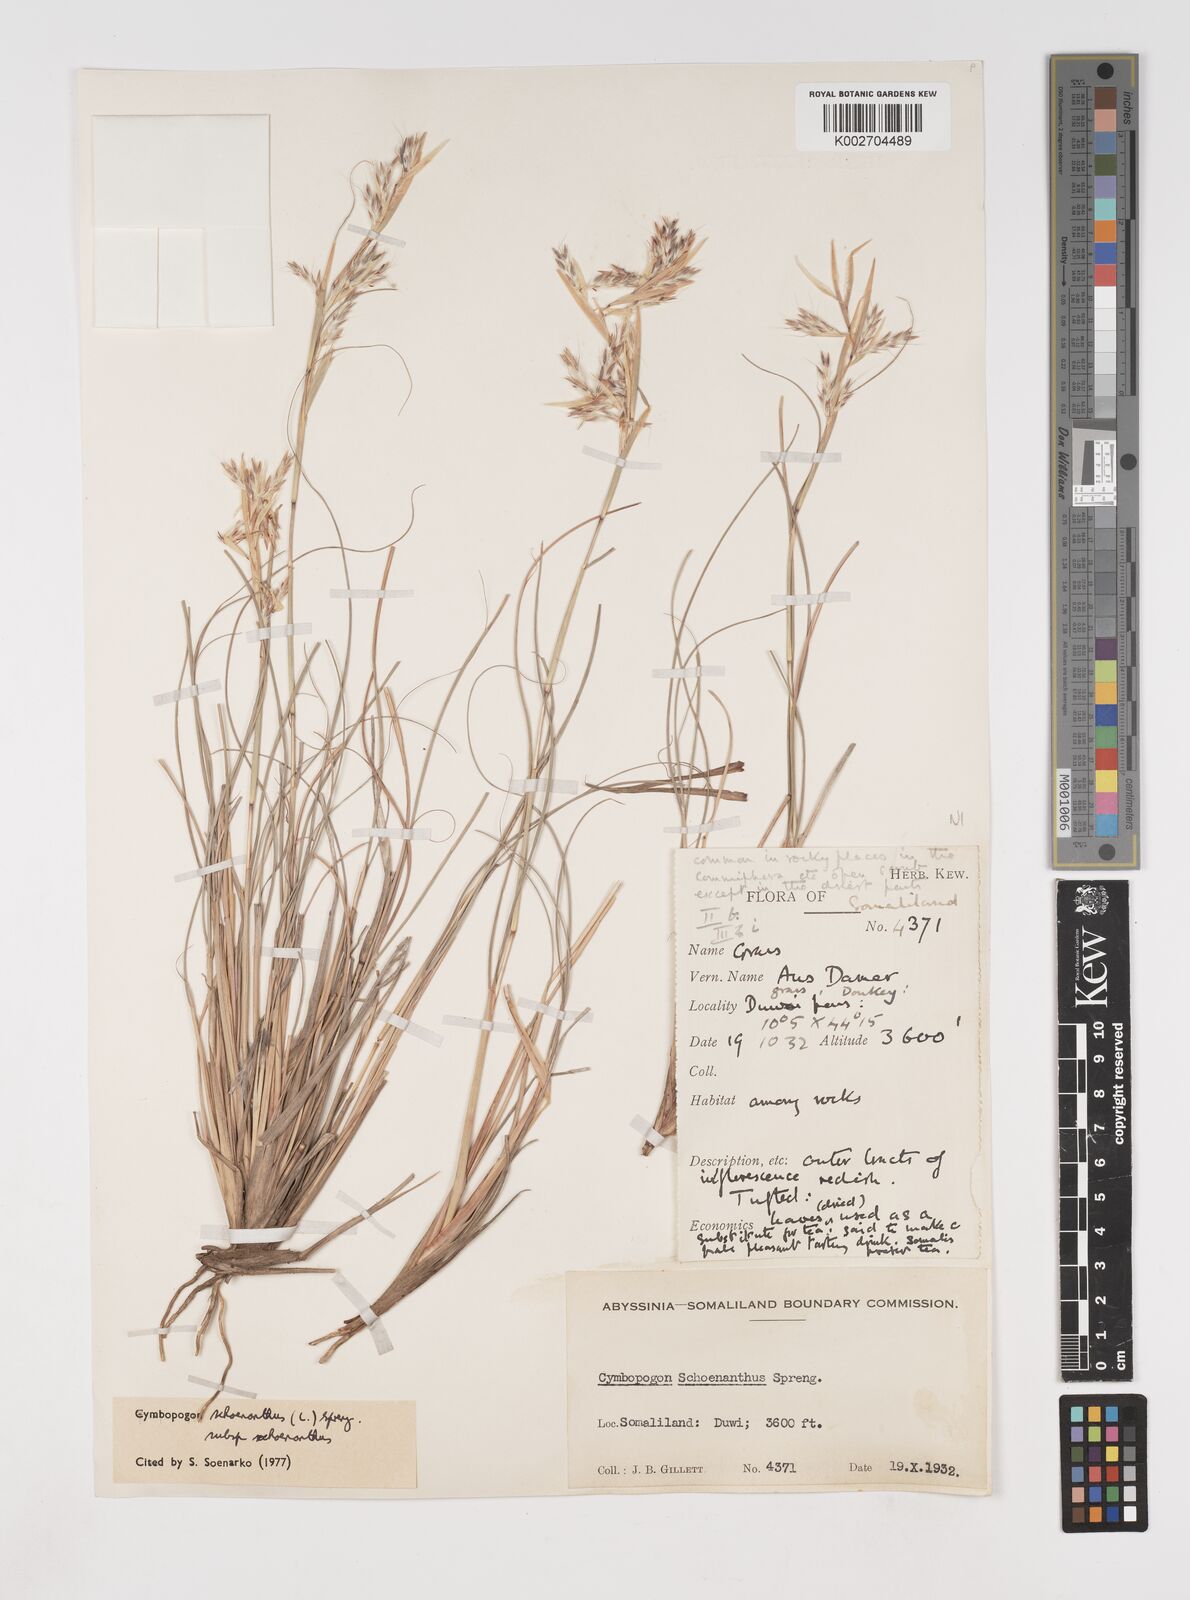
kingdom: Plantae
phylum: Tracheophyta
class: Liliopsida
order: Poales
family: Poaceae
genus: Cymbopogon
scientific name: Cymbopogon schoenanthus
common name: Geranium grass
